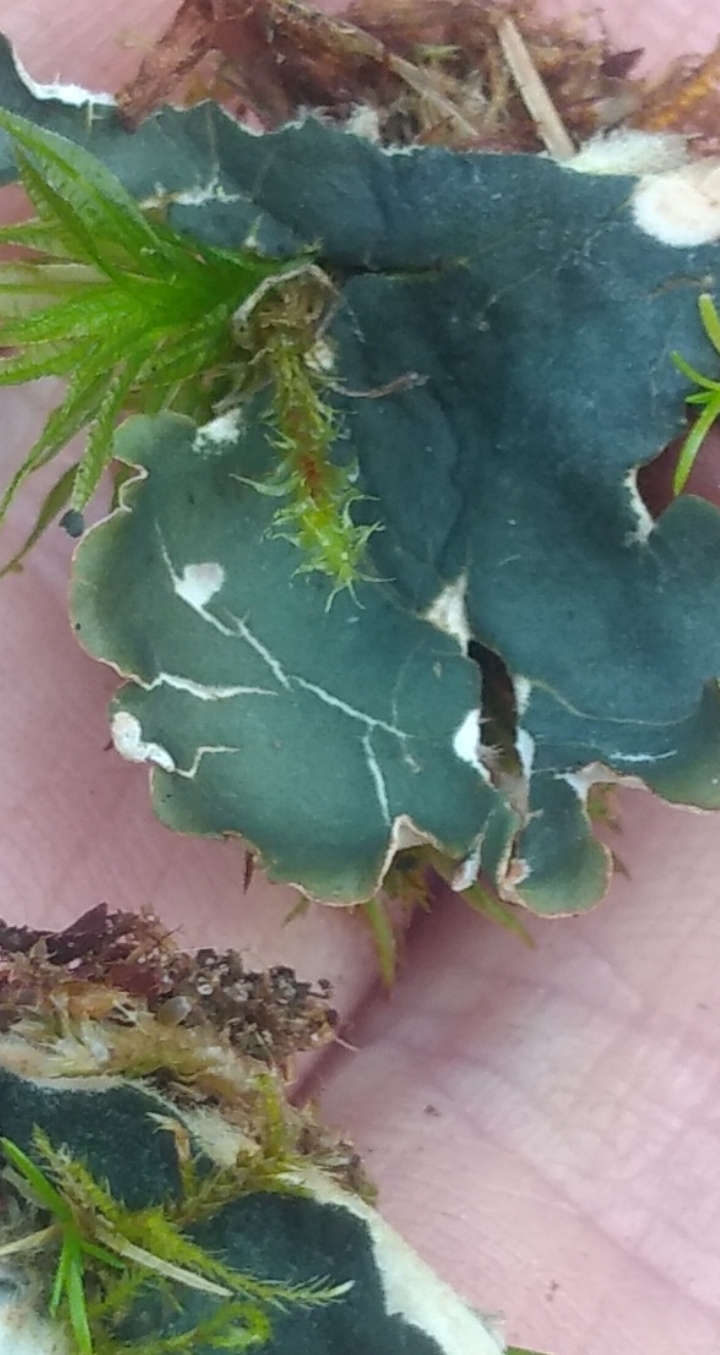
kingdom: Fungi
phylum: Ascomycota
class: Lecanoromycetes
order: Peltigerales
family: Peltigeraceae
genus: Peltigera
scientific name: Peltigera hymenina
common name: hinde-skjoldlav
